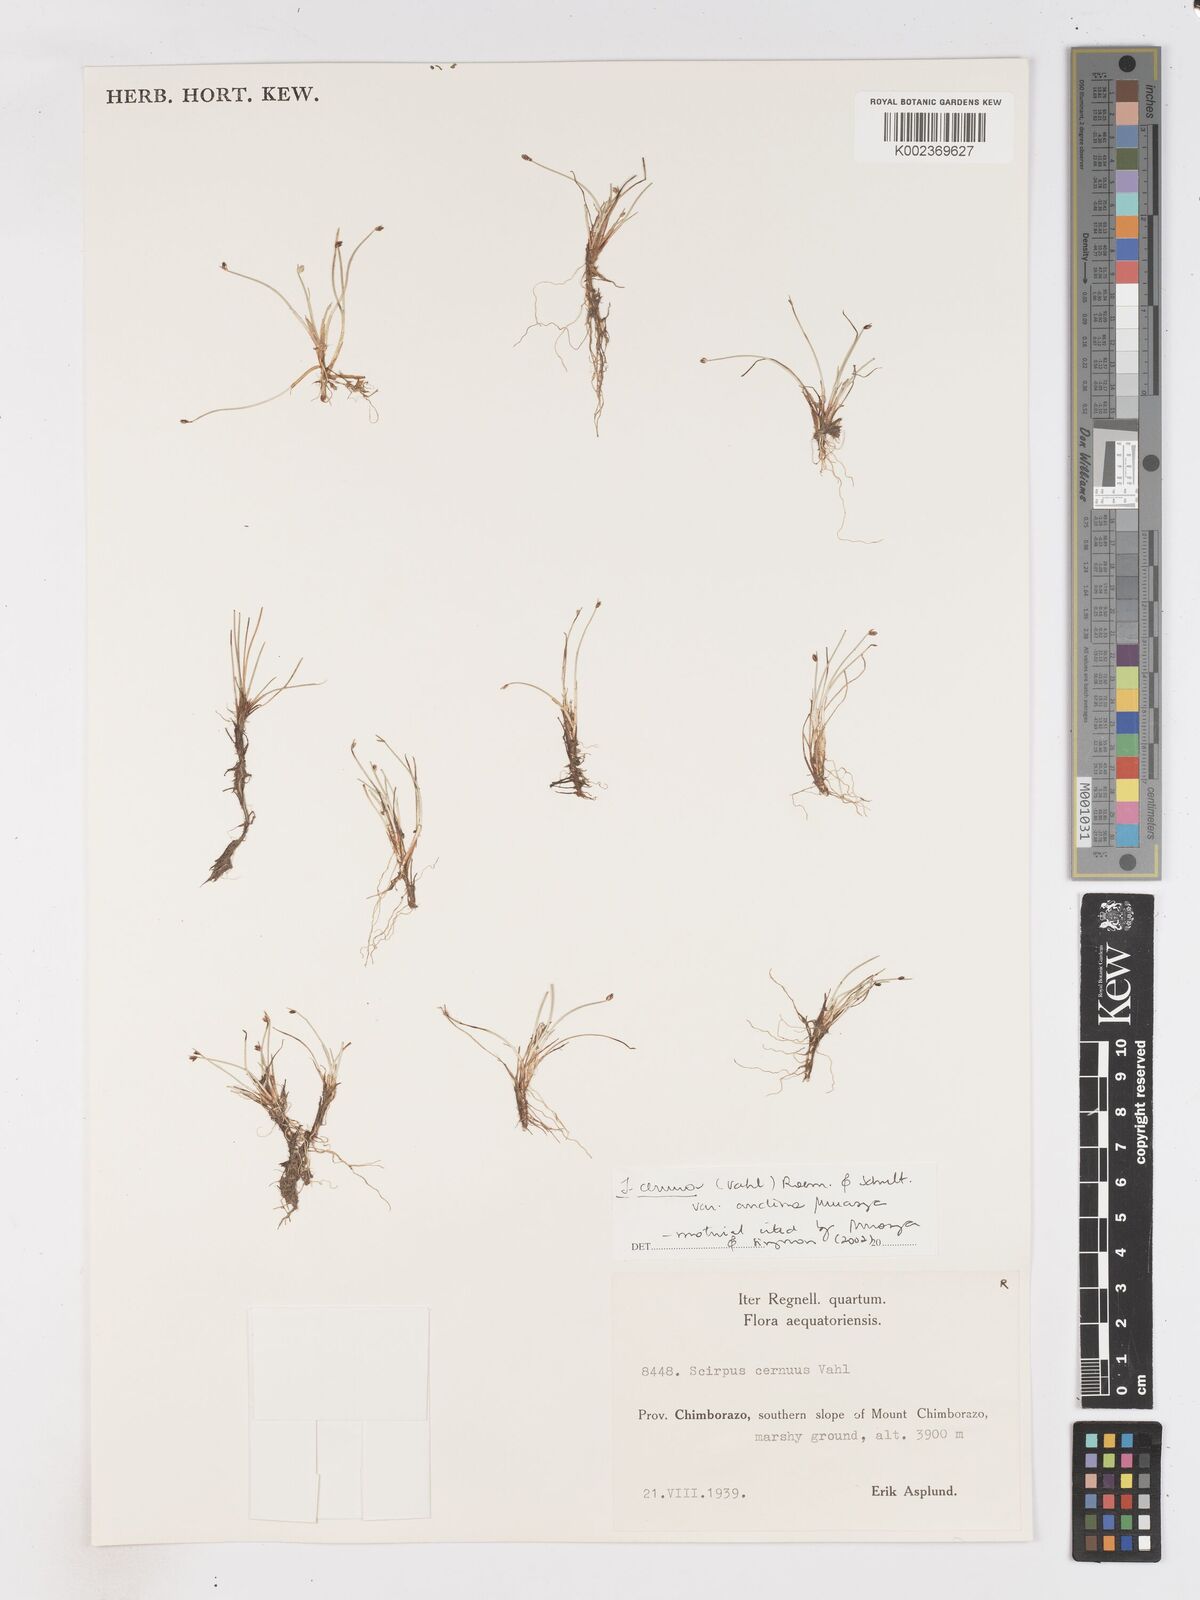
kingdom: Plantae
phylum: Tracheophyta
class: Liliopsida
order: Poales
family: Cyperaceae
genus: Isolepis
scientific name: Isolepis cernua
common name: Slender club-rush
